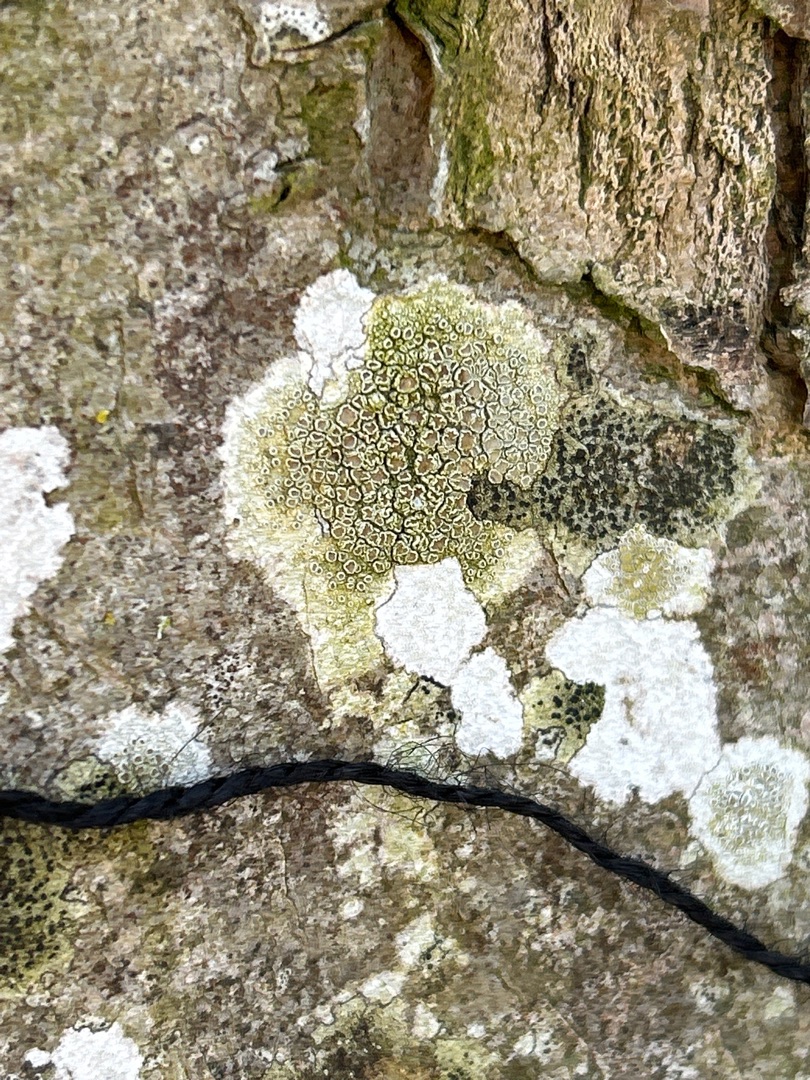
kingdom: Fungi
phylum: Ascomycota
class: Lecanoromycetes
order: Lecanorales
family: Lecanoraceae
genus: Lecanora
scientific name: Lecanora chlarotera
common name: Brun kantskivelav
